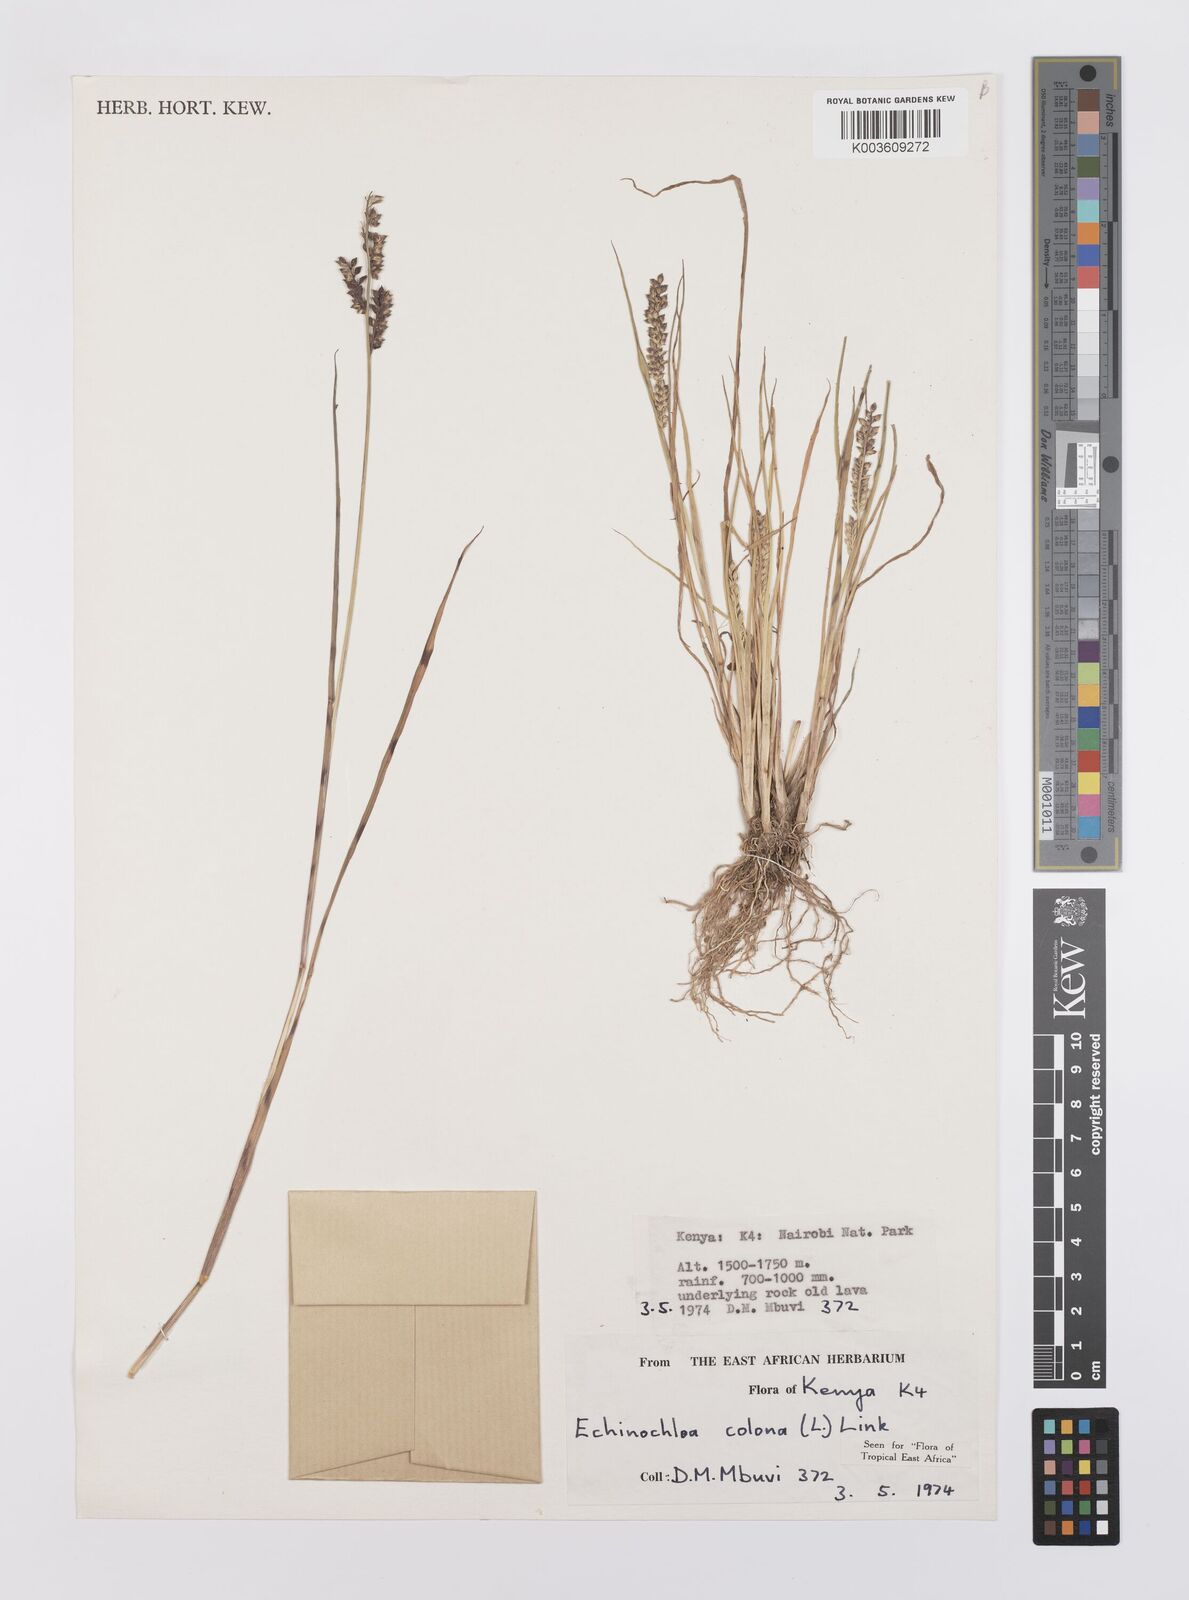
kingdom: Plantae
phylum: Tracheophyta
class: Liliopsida
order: Poales
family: Poaceae
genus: Echinochloa
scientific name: Echinochloa colonum
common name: Jungle rice
